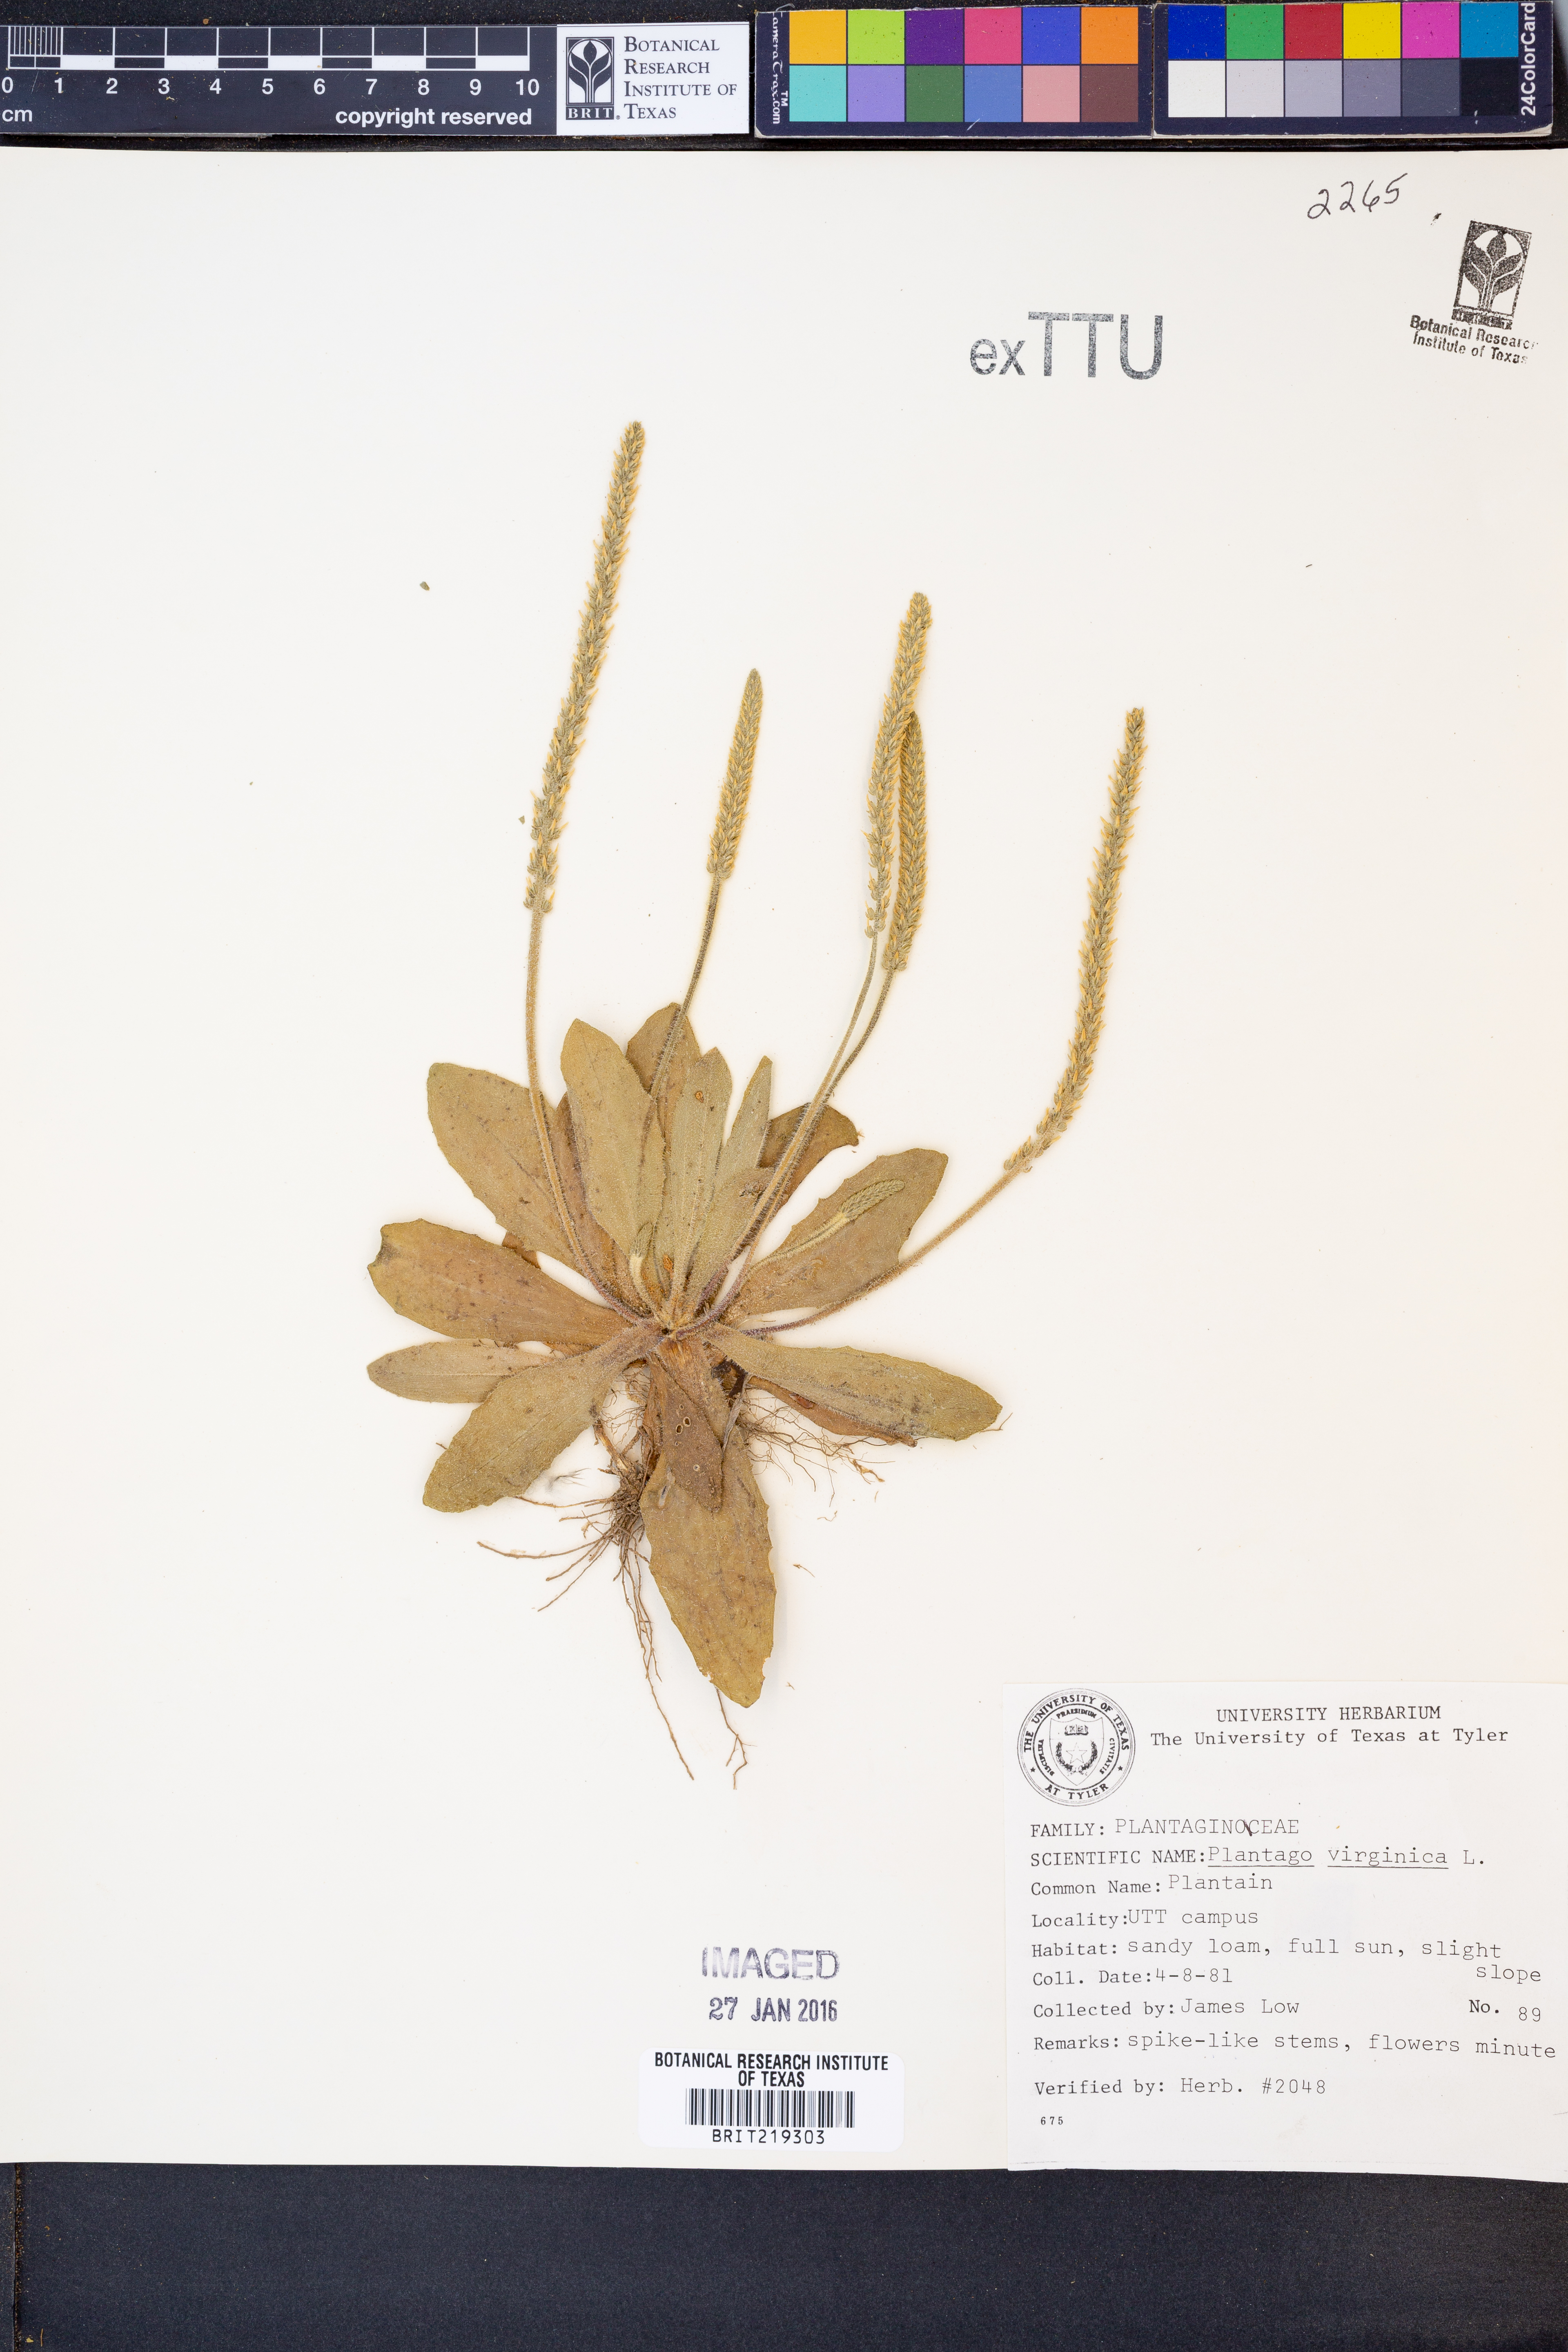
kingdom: Plantae
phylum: Tracheophyta
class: Magnoliopsida
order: Lamiales
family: Plantaginaceae
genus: Plantago
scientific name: Plantago virginica
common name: Hoary plantain
